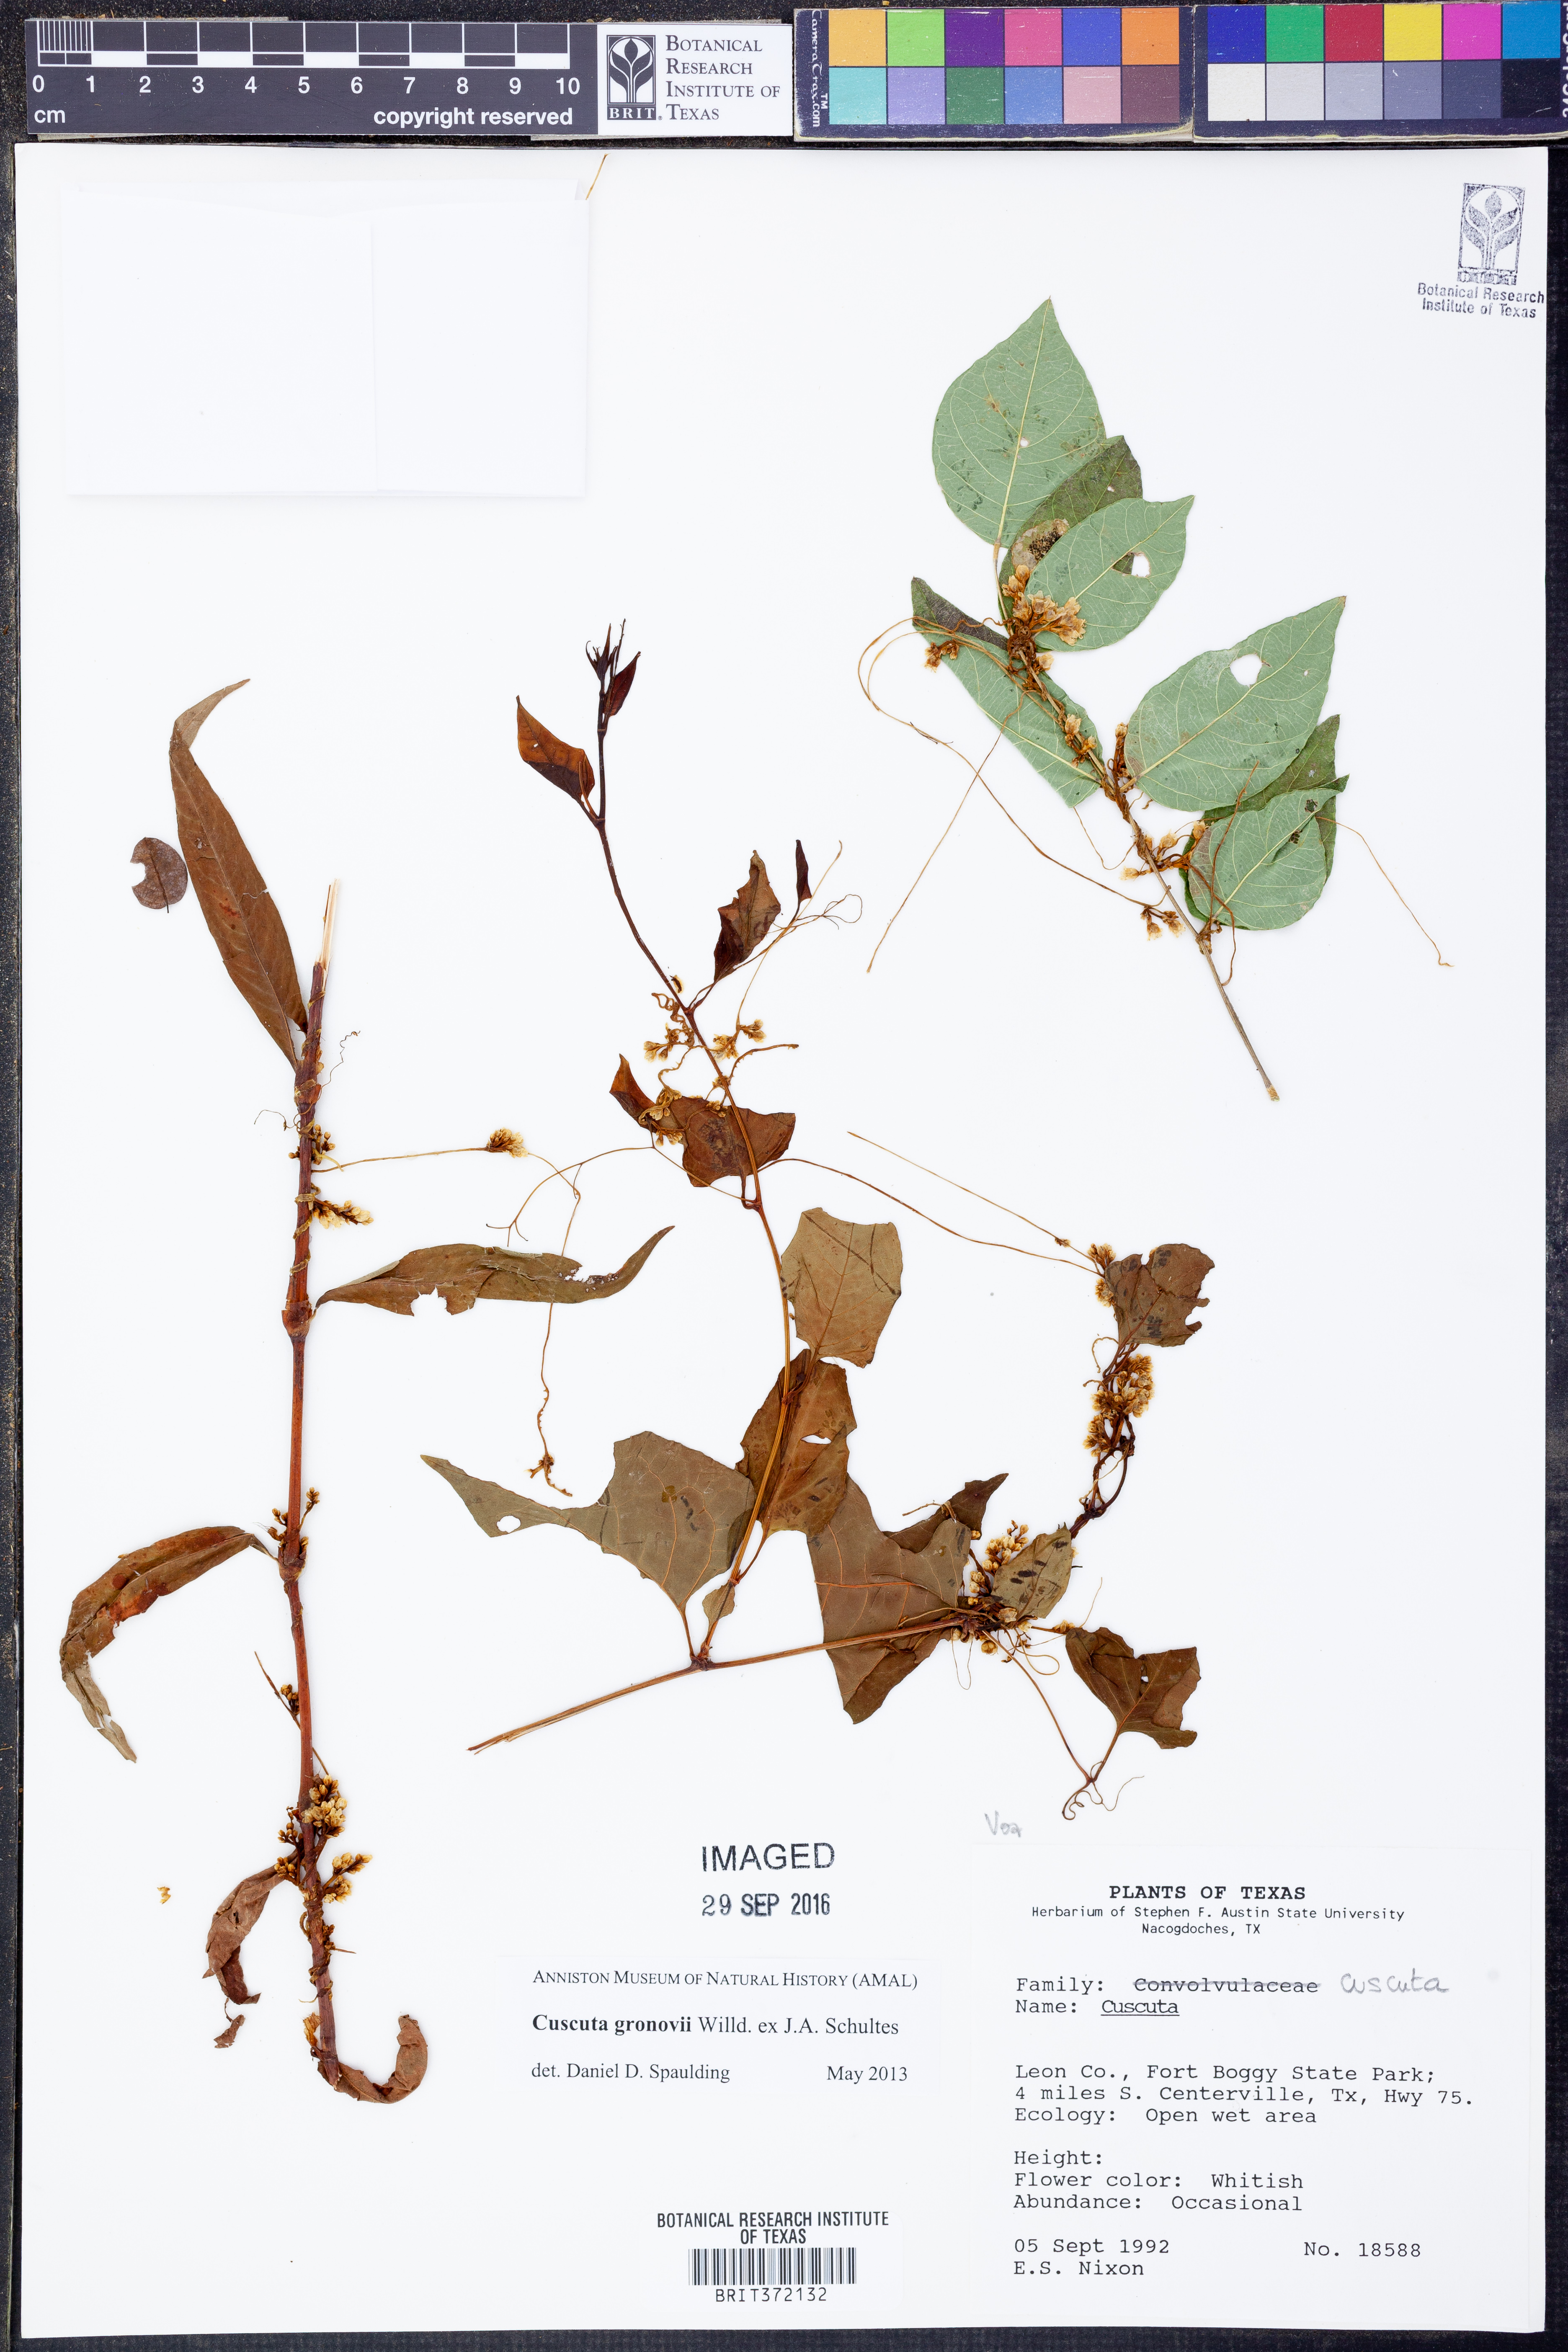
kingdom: Plantae
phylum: Tracheophyta
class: Magnoliopsida
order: Solanales
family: Convolvulaceae
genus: Cuscuta
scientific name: Cuscuta gronovii
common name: Common dodder
